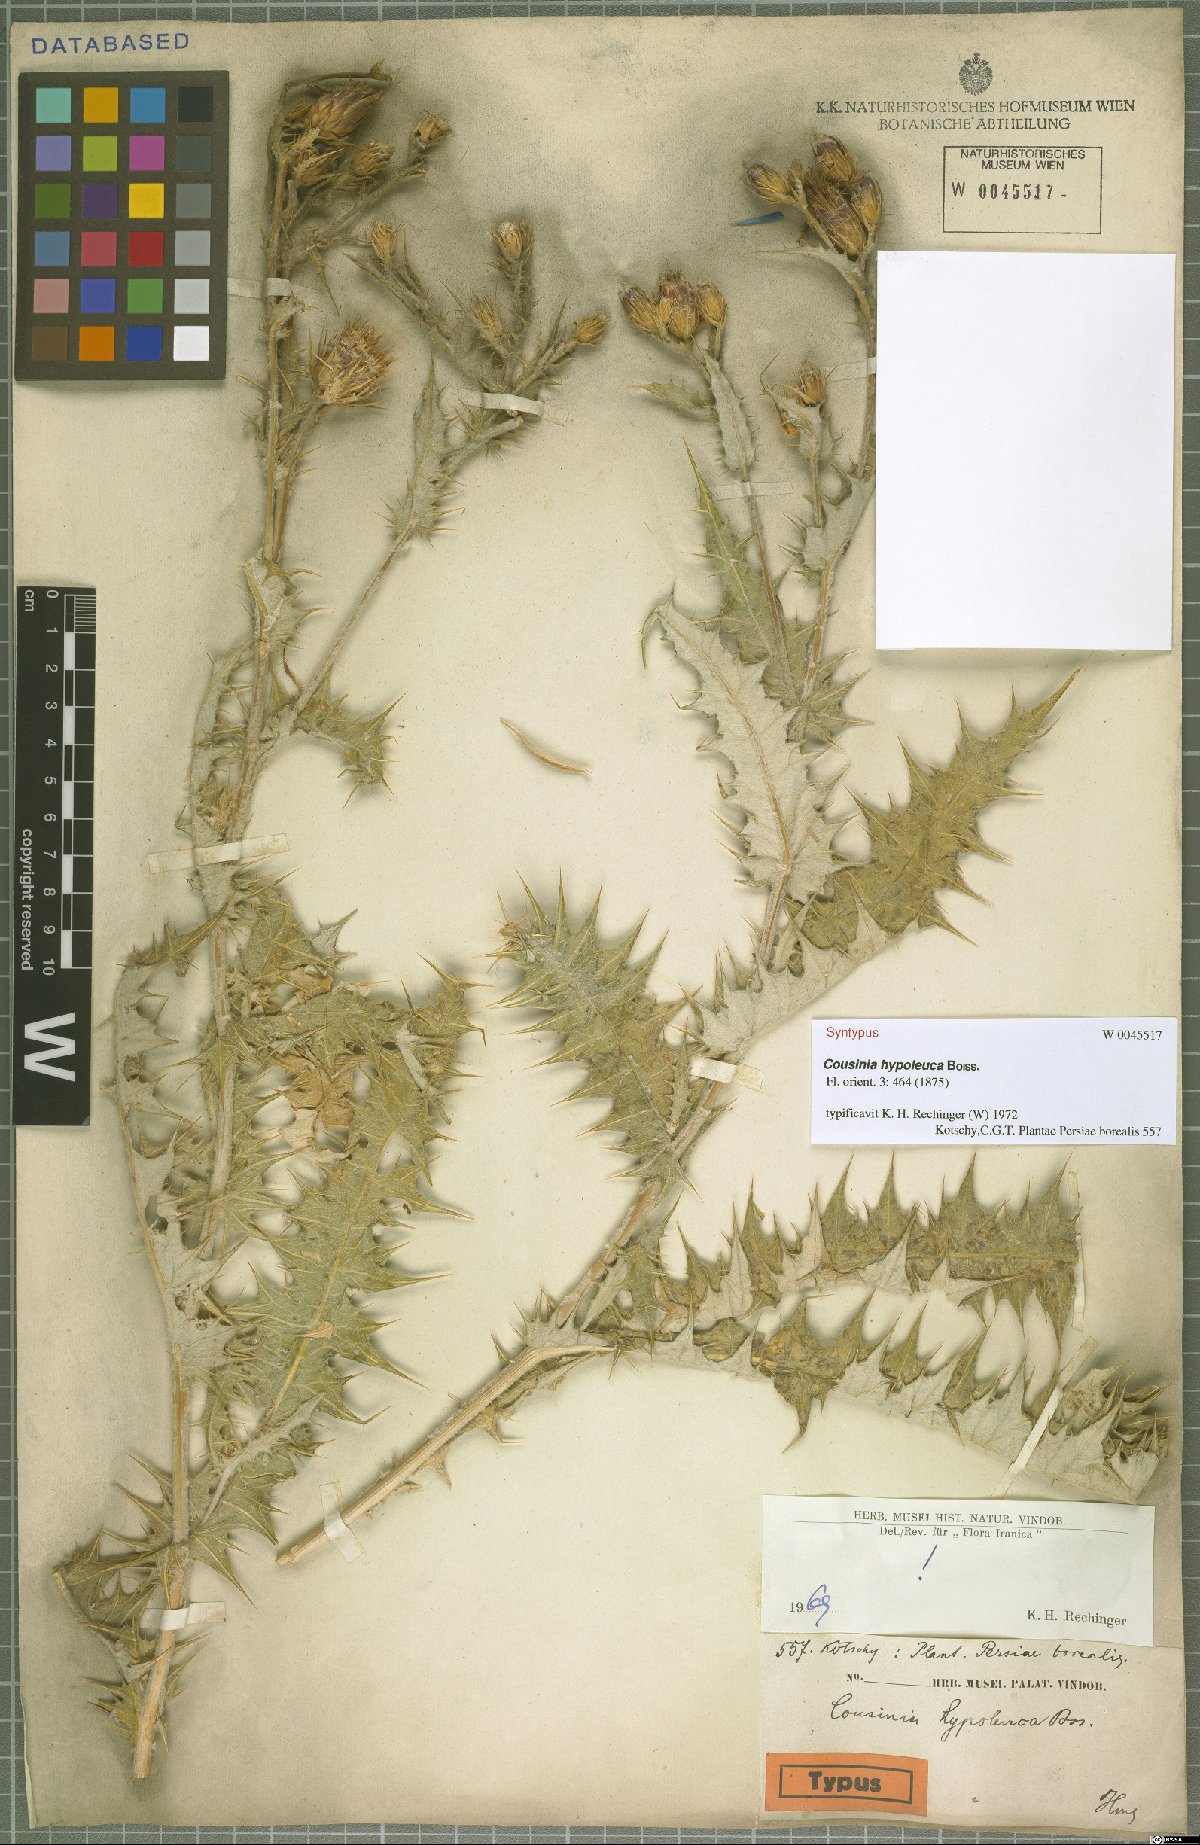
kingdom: Plantae
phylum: Tracheophyta
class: Magnoliopsida
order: Asterales
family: Asteraceae
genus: Cousinia
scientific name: Cousinia hypoleuca
